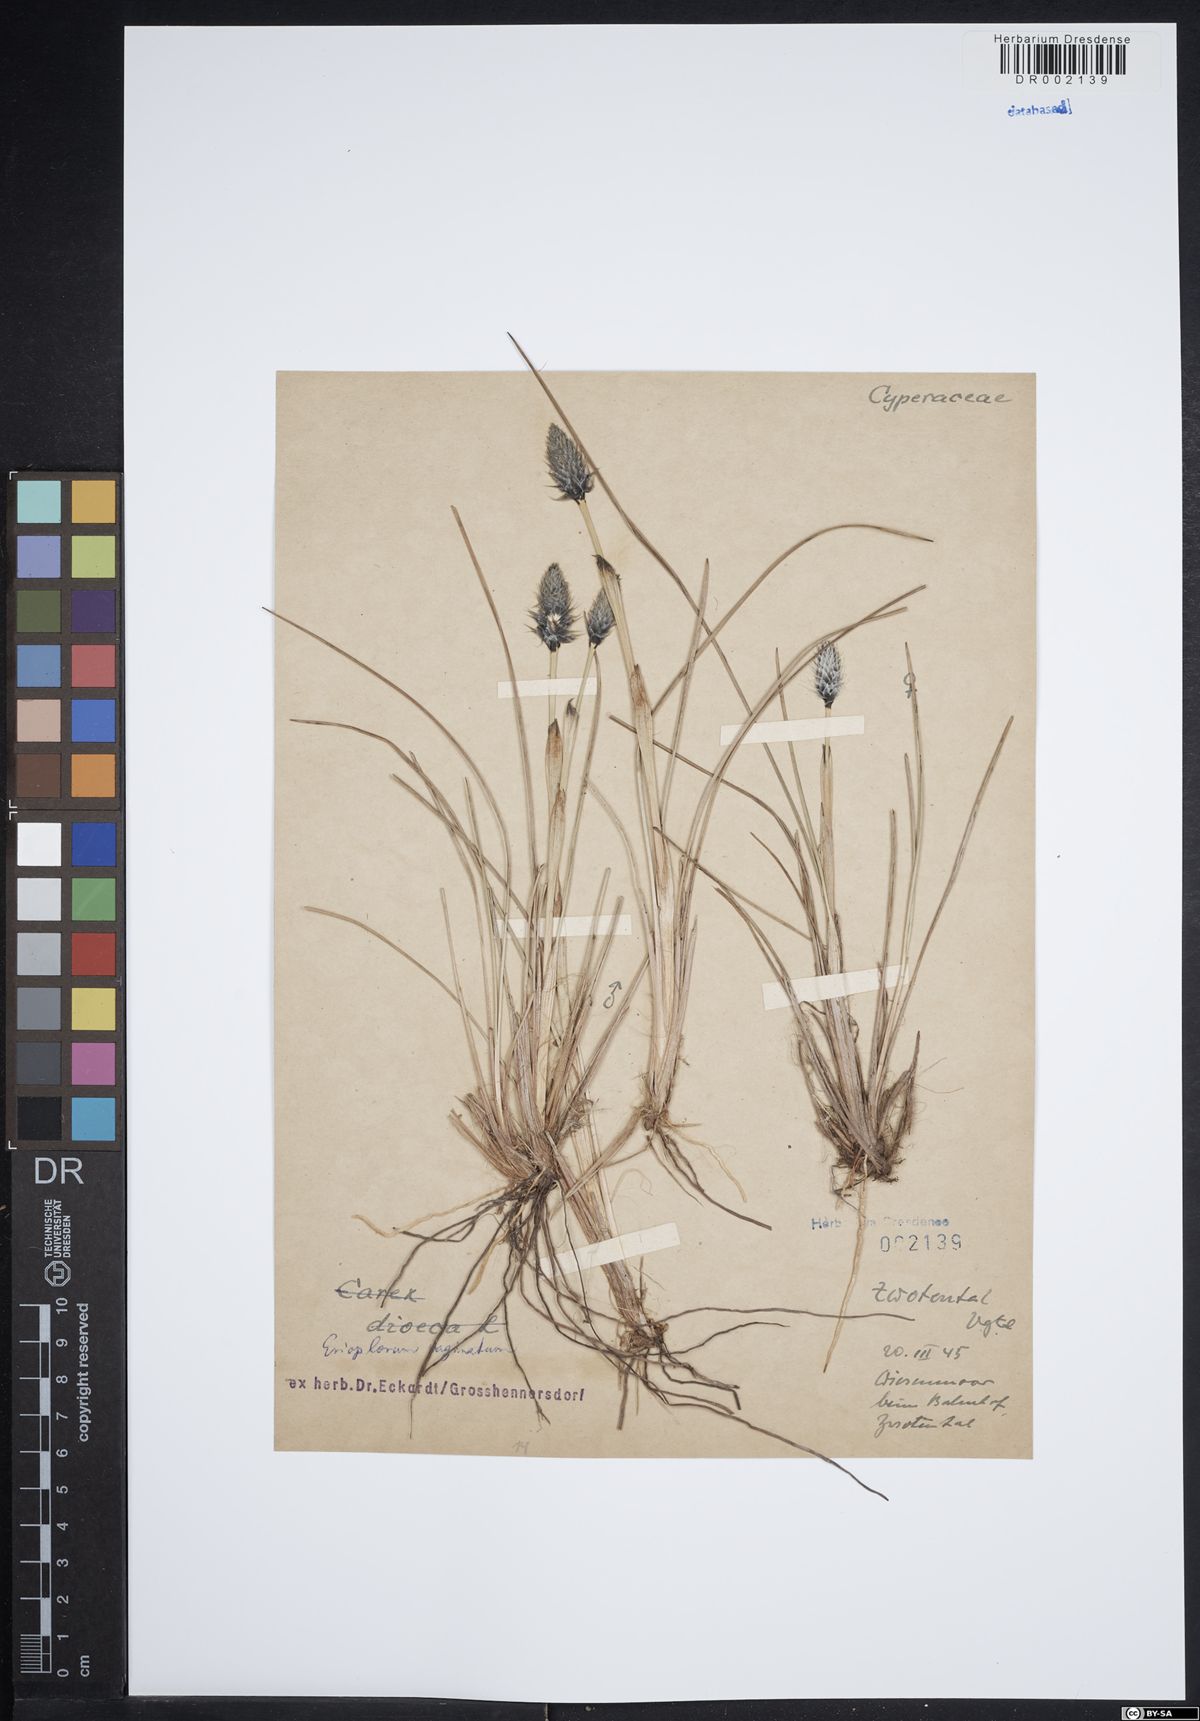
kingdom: Plantae
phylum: Tracheophyta
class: Liliopsida
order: Poales
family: Cyperaceae
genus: Eriophorum
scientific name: Eriophorum vaginatum
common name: Hare's-tail cottongrass
